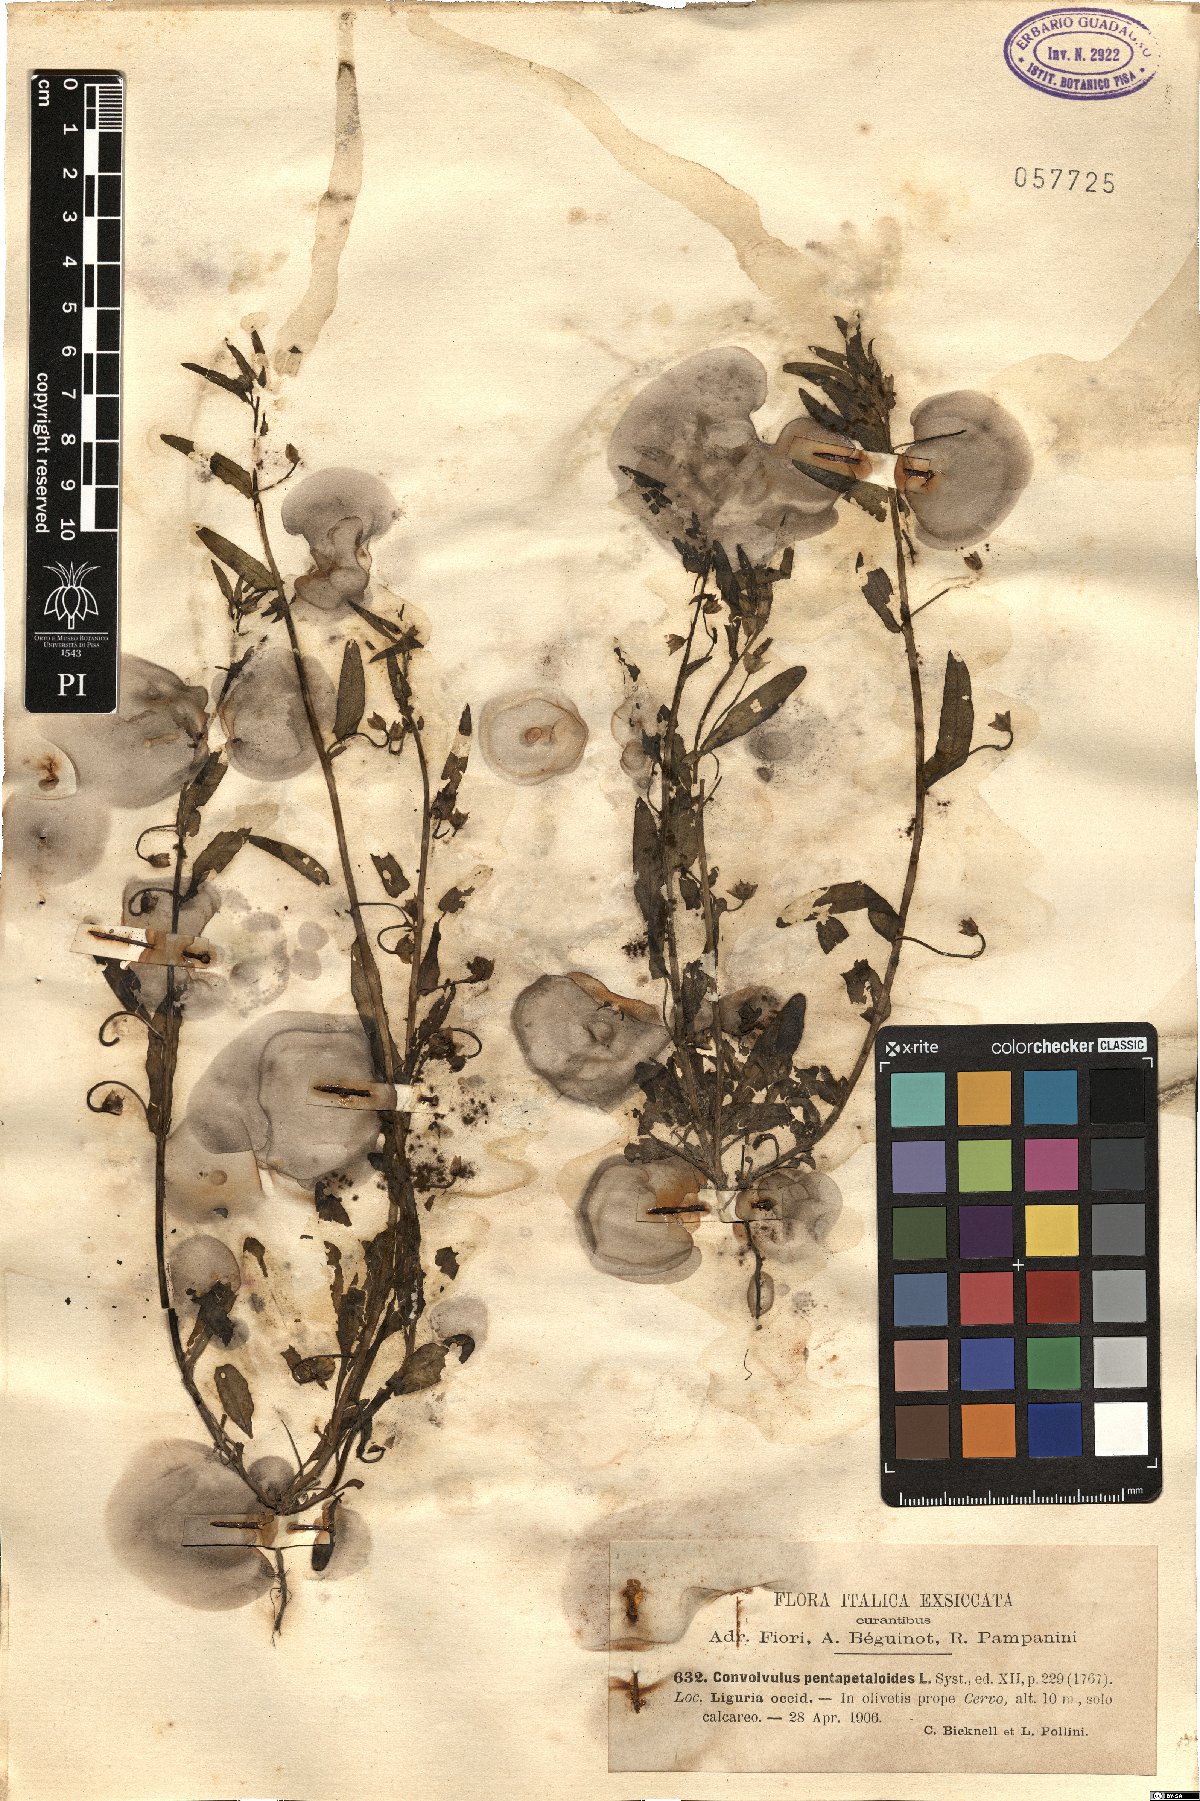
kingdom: Plantae
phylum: Tracheophyta
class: Magnoliopsida
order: Solanales
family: Convolvulaceae
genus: Convolvulus
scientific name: Convolvulus pentapetaloides
